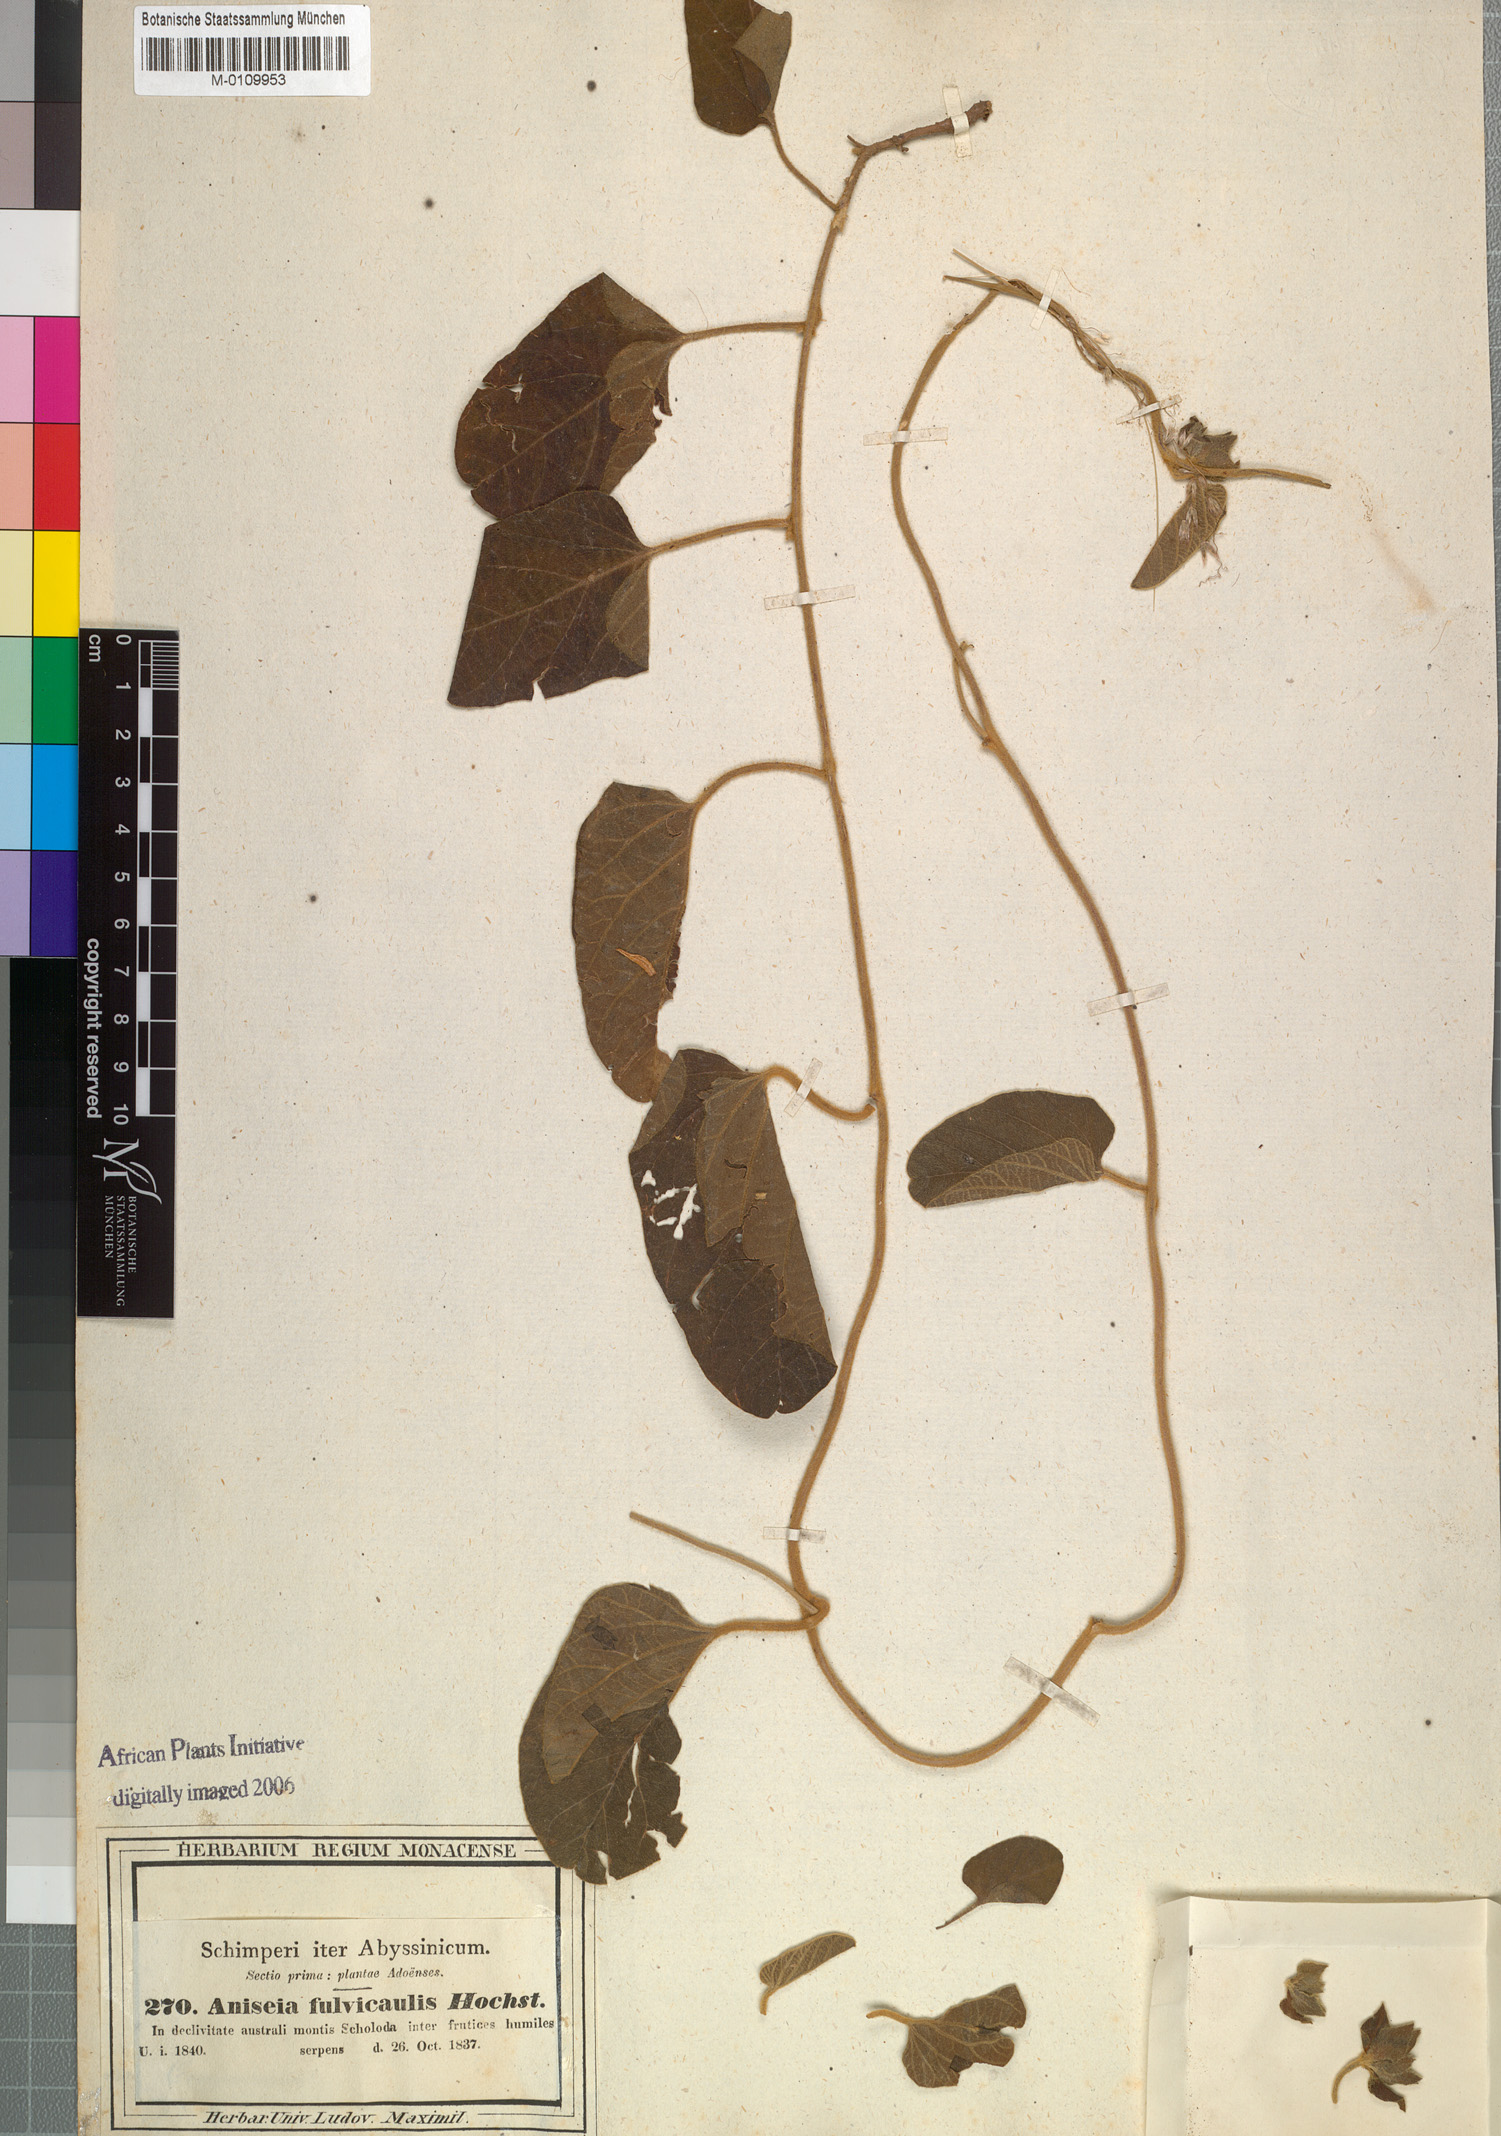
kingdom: Plantae
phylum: Tracheophyta
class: Magnoliopsida
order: Solanales
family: Convolvulaceae
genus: Ipomoea
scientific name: Ipomoea fulvicaulis
